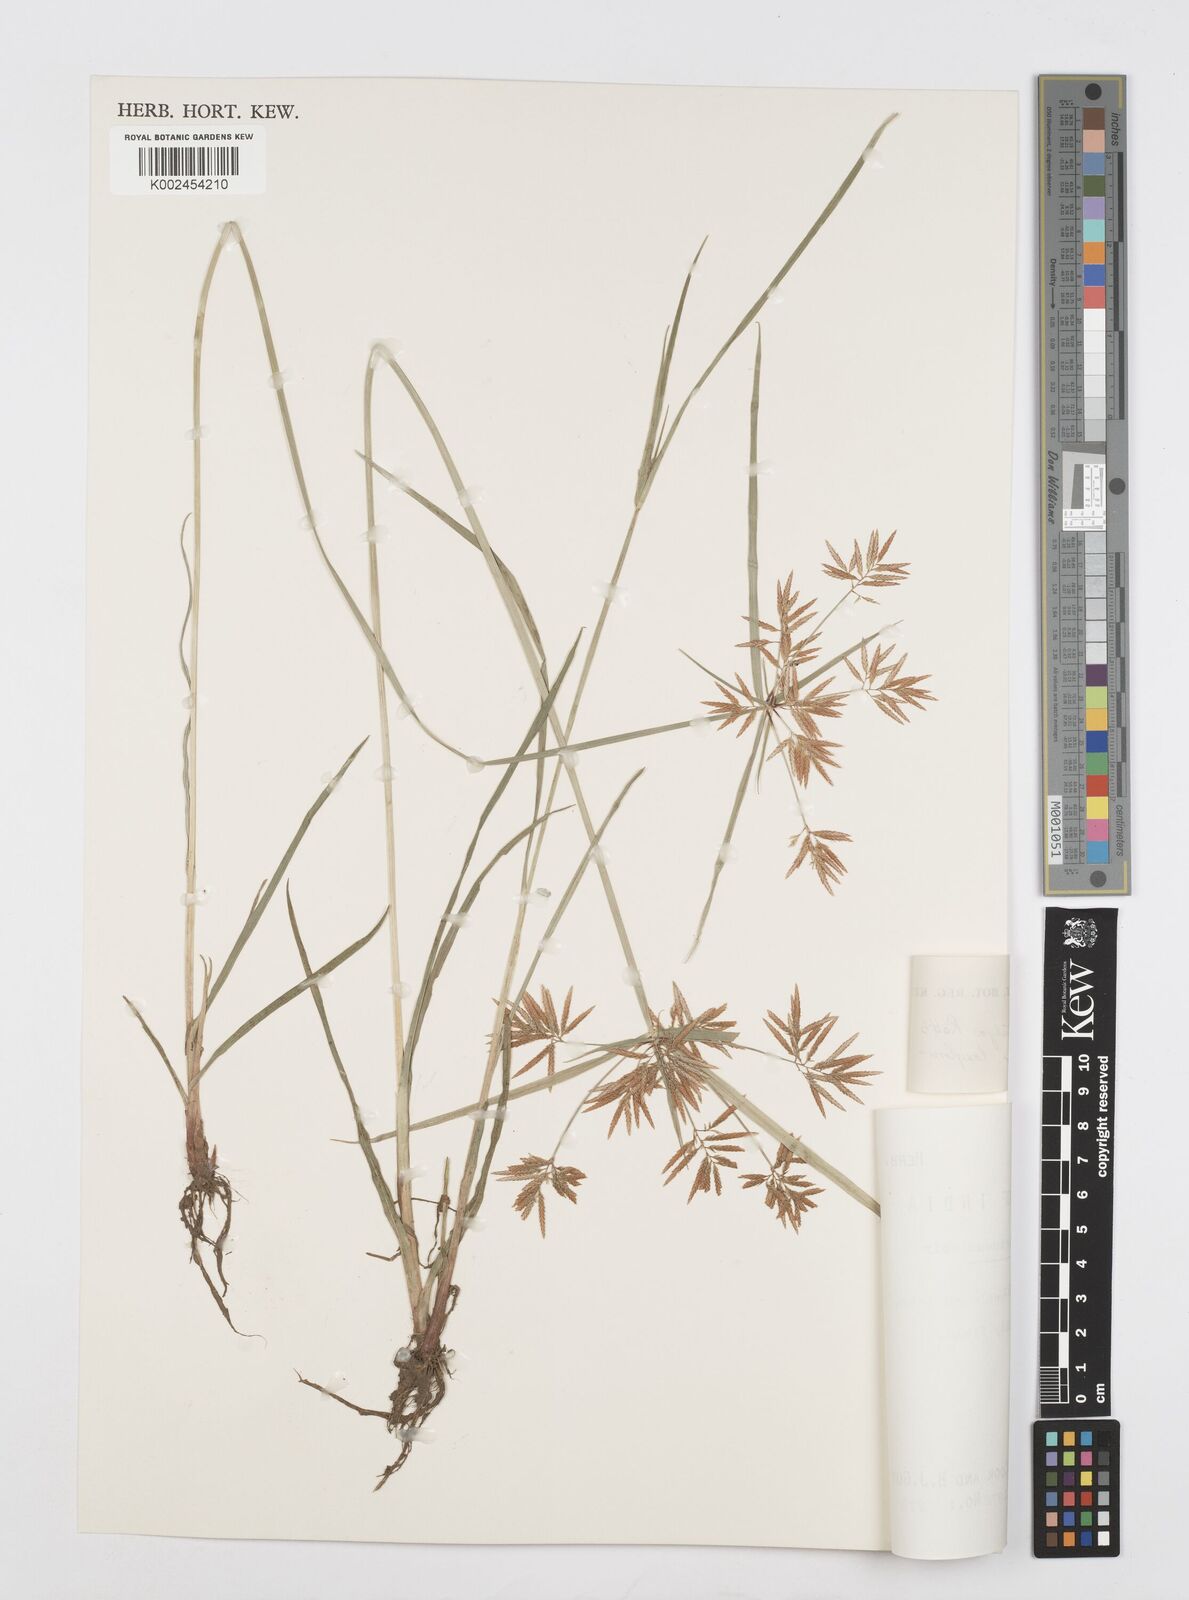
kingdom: Plantae
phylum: Tracheophyta
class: Liliopsida
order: Poales
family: Cyperaceae
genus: Cyperus
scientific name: Cyperus polystachyos
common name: Bunchy flat sedge
